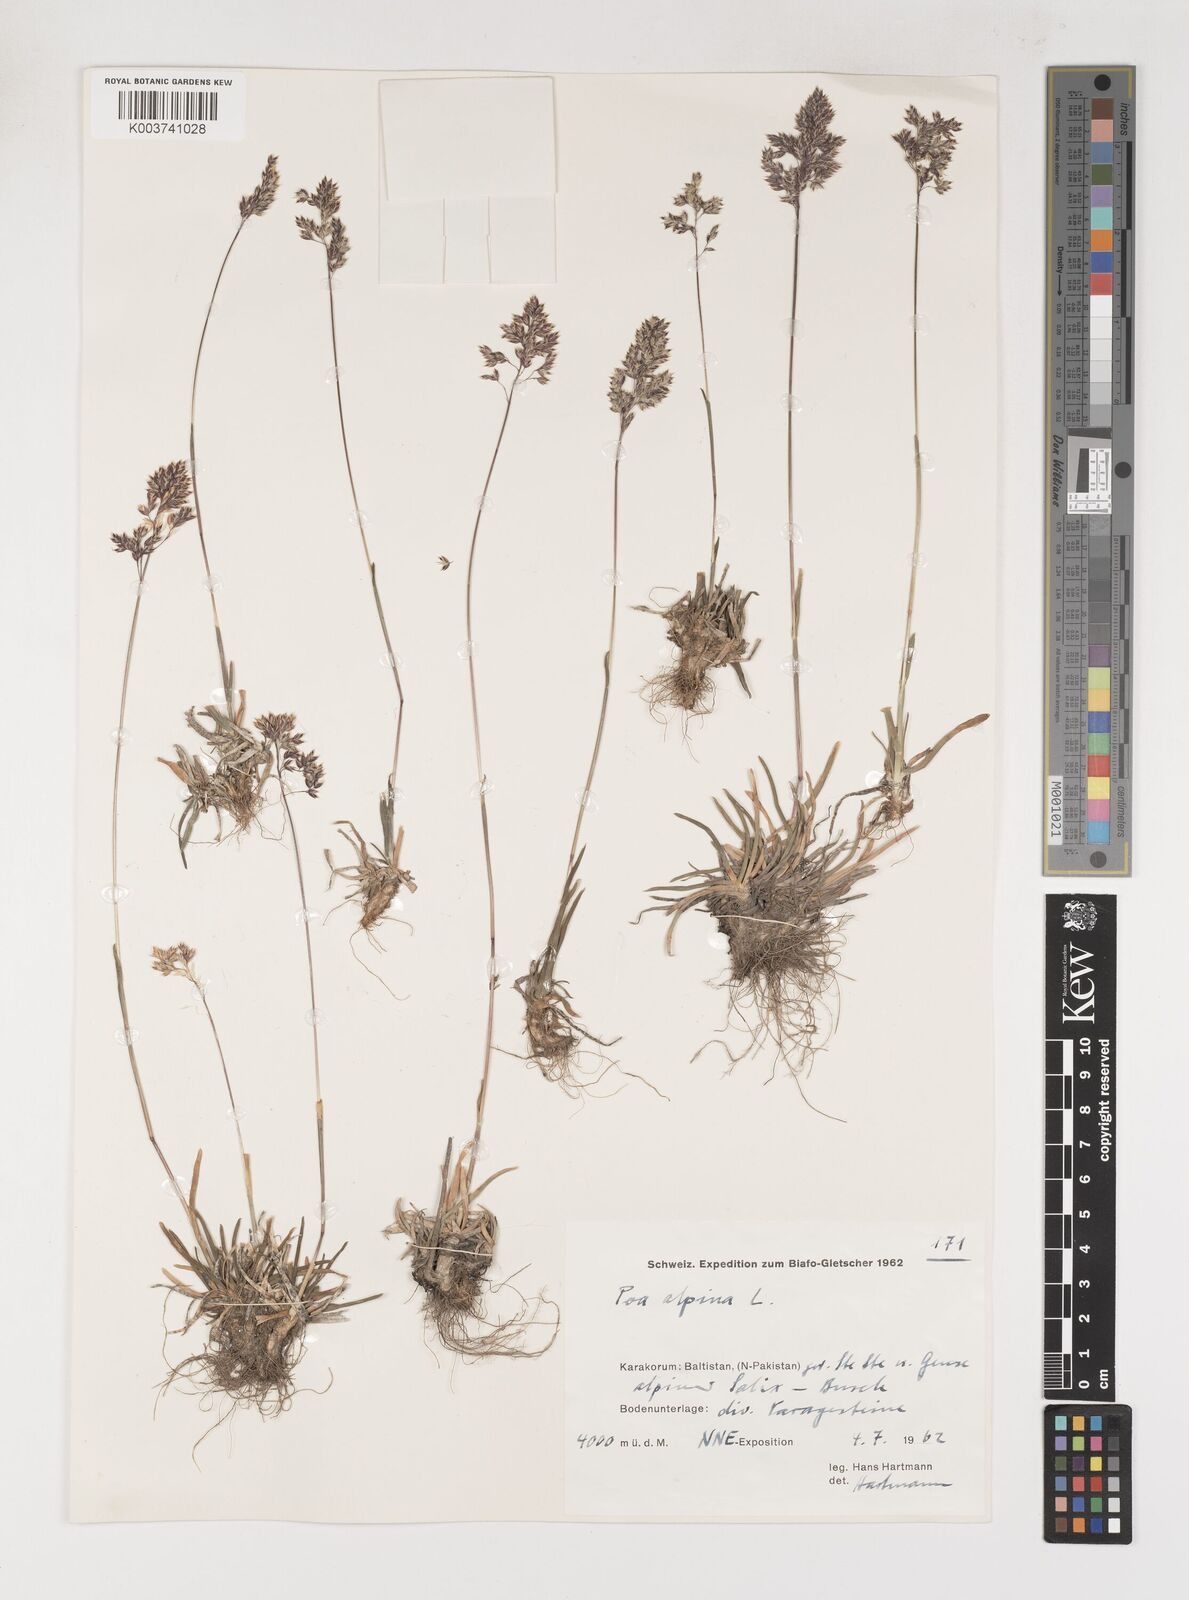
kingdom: Plantae
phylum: Tracheophyta
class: Liliopsida
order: Poales
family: Poaceae
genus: Poa
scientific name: Poa alpina
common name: Alpine bluegrass
